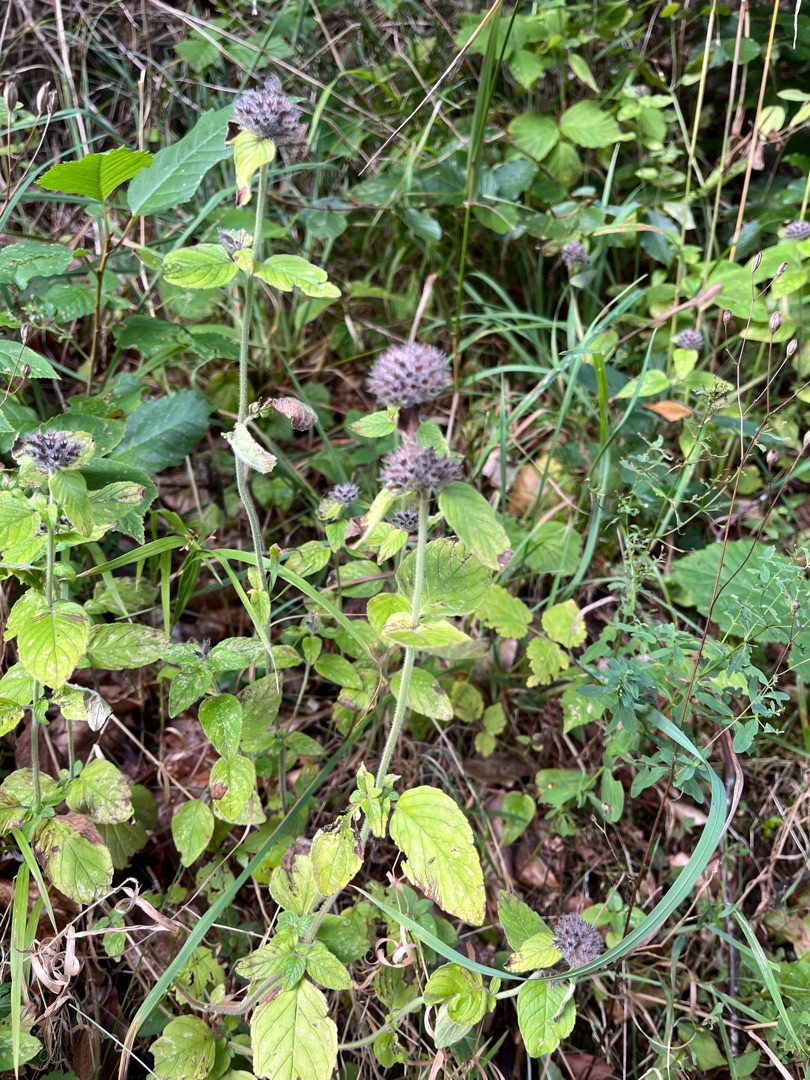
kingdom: Plantae
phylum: Tracheophyta
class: Magnoliopsida
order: Lamiales
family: Lamiaceae
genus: Clinopodium
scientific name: Clinopodium vulgare
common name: Kransbørste
